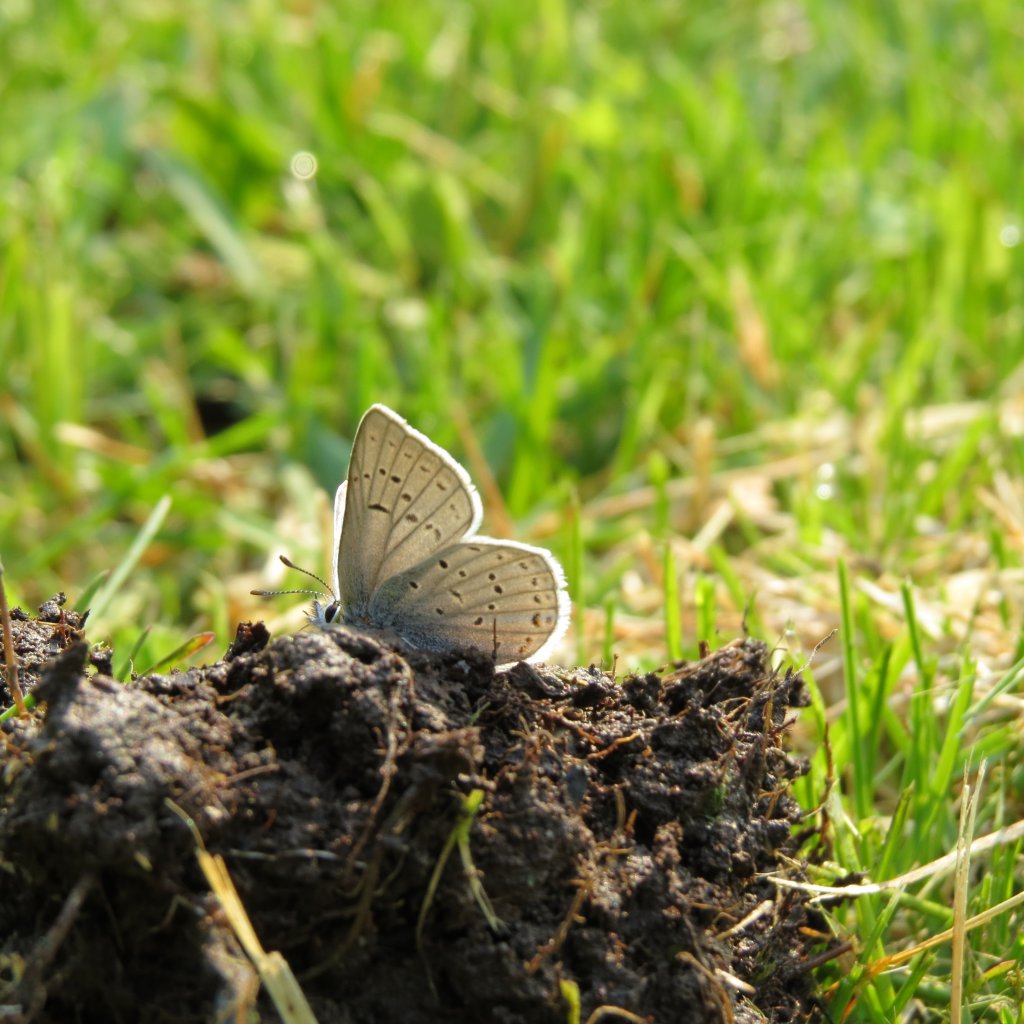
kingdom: Animalia
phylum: Arthropoda
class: Insecta
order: Lepidoptera
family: Lycaenidae
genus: Plebejus
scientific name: Plebejus saepiolus
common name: Greenish Blue
